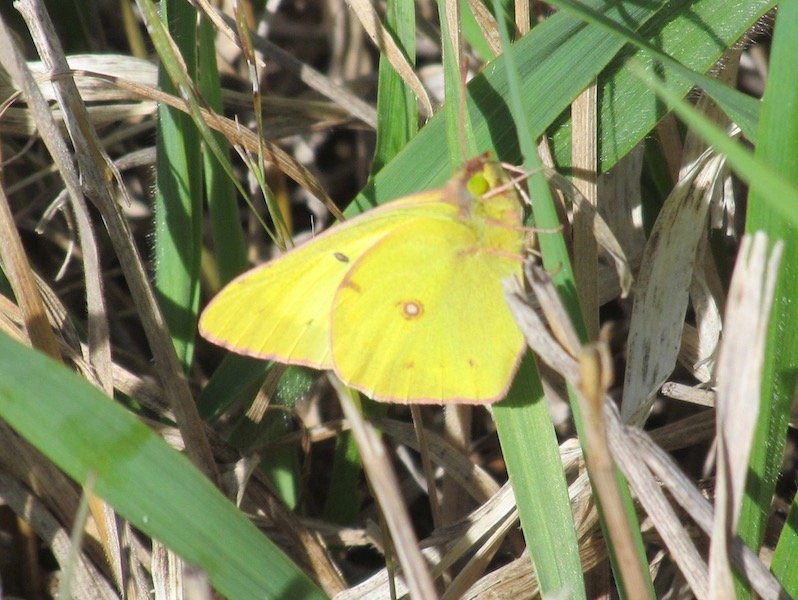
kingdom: Animalia
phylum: Arthropoda
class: Insecta
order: Lepidoptera
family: Pieridae
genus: Colias
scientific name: Colias philodice
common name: Clouded Sulphur
